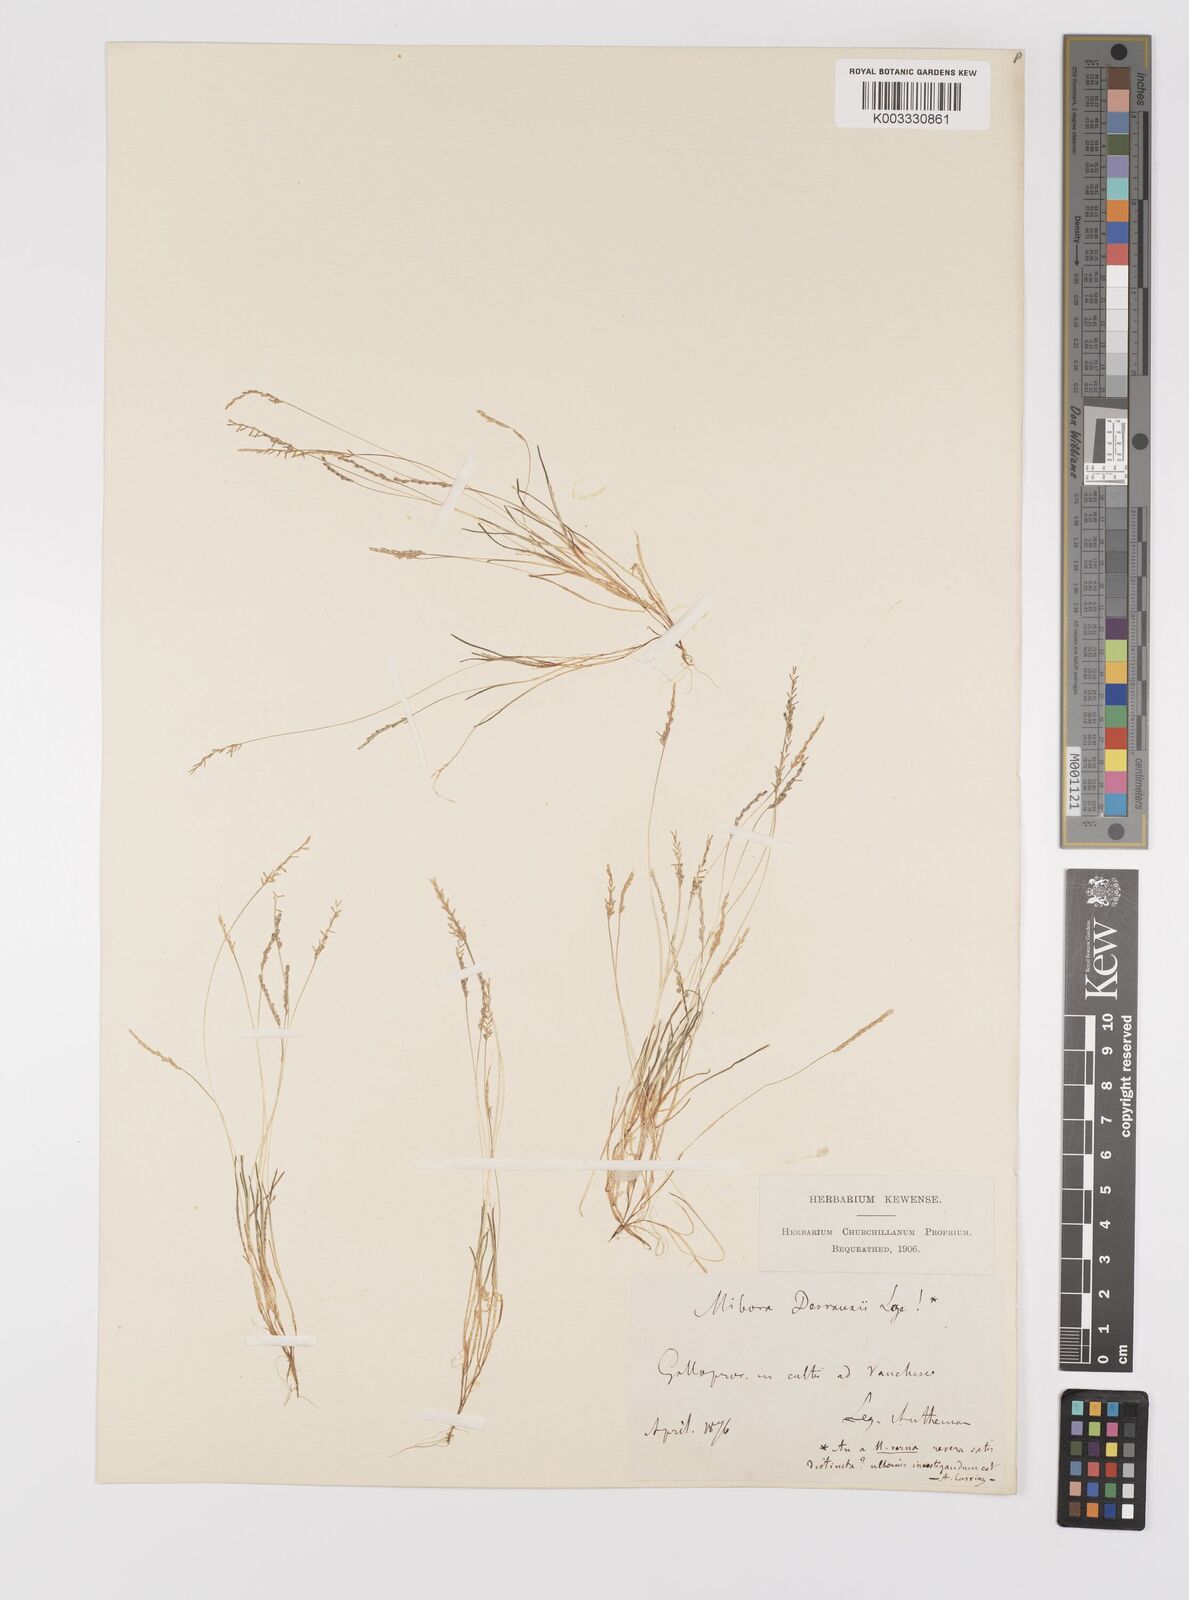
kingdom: Plantae
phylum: Tracheophyta
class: Liliopsida
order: Poales
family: Poaceae
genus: Mibora
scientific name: Mibora minima
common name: Early sand-grass
